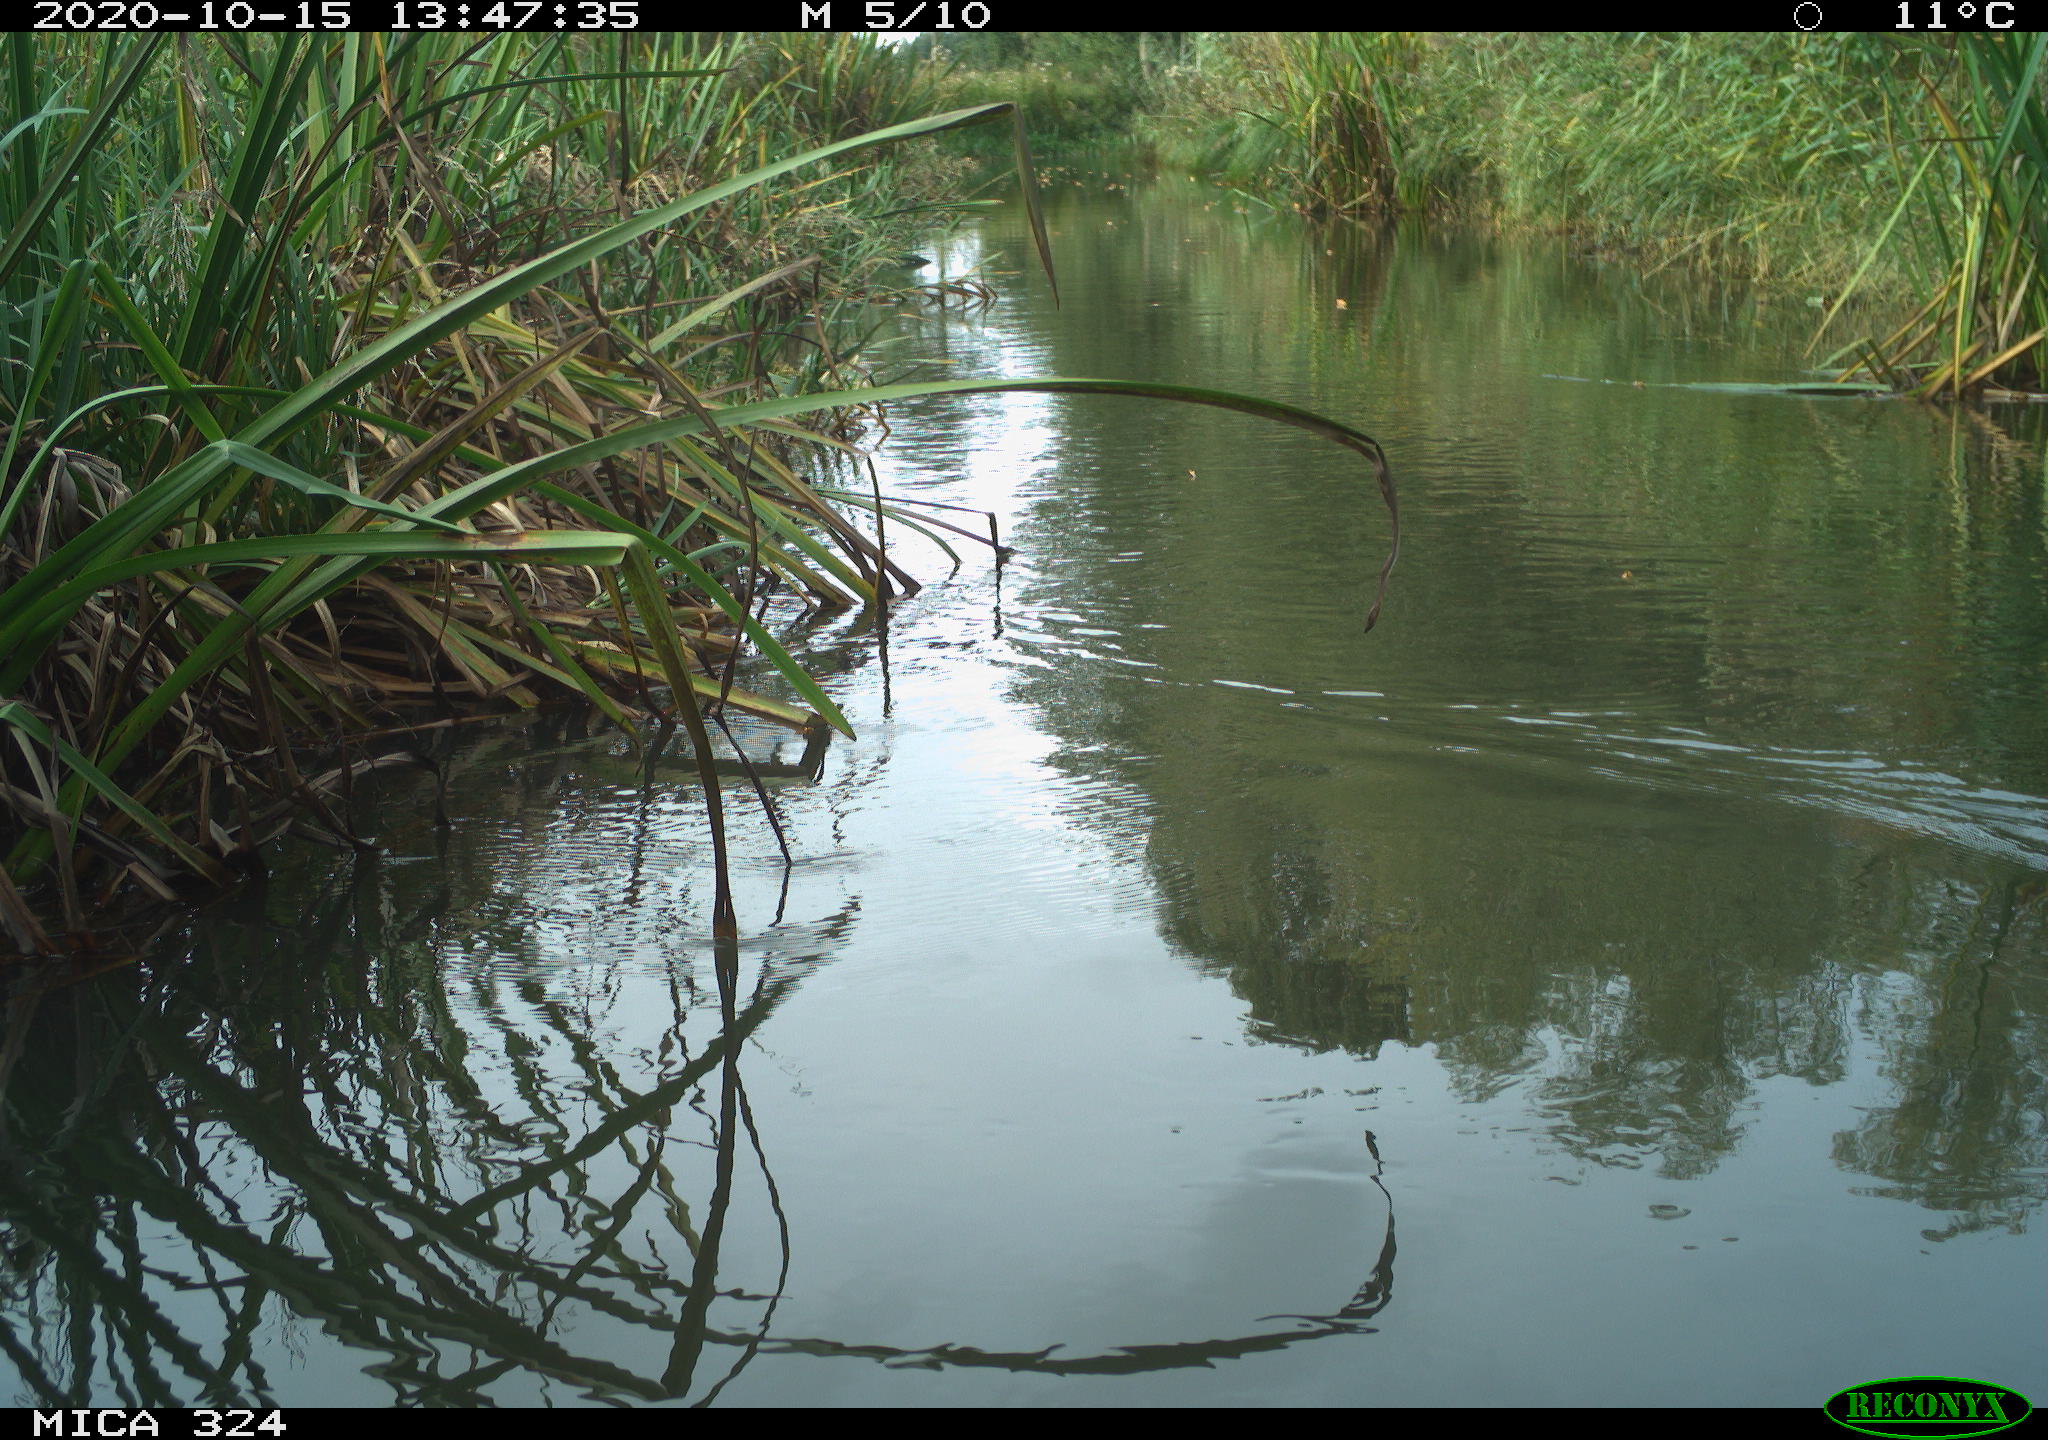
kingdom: Animalia
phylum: Chordata
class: Aves
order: Gruiformes
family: Rallidae
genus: Fulica
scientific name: Fulica atra
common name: Eurasian coot
